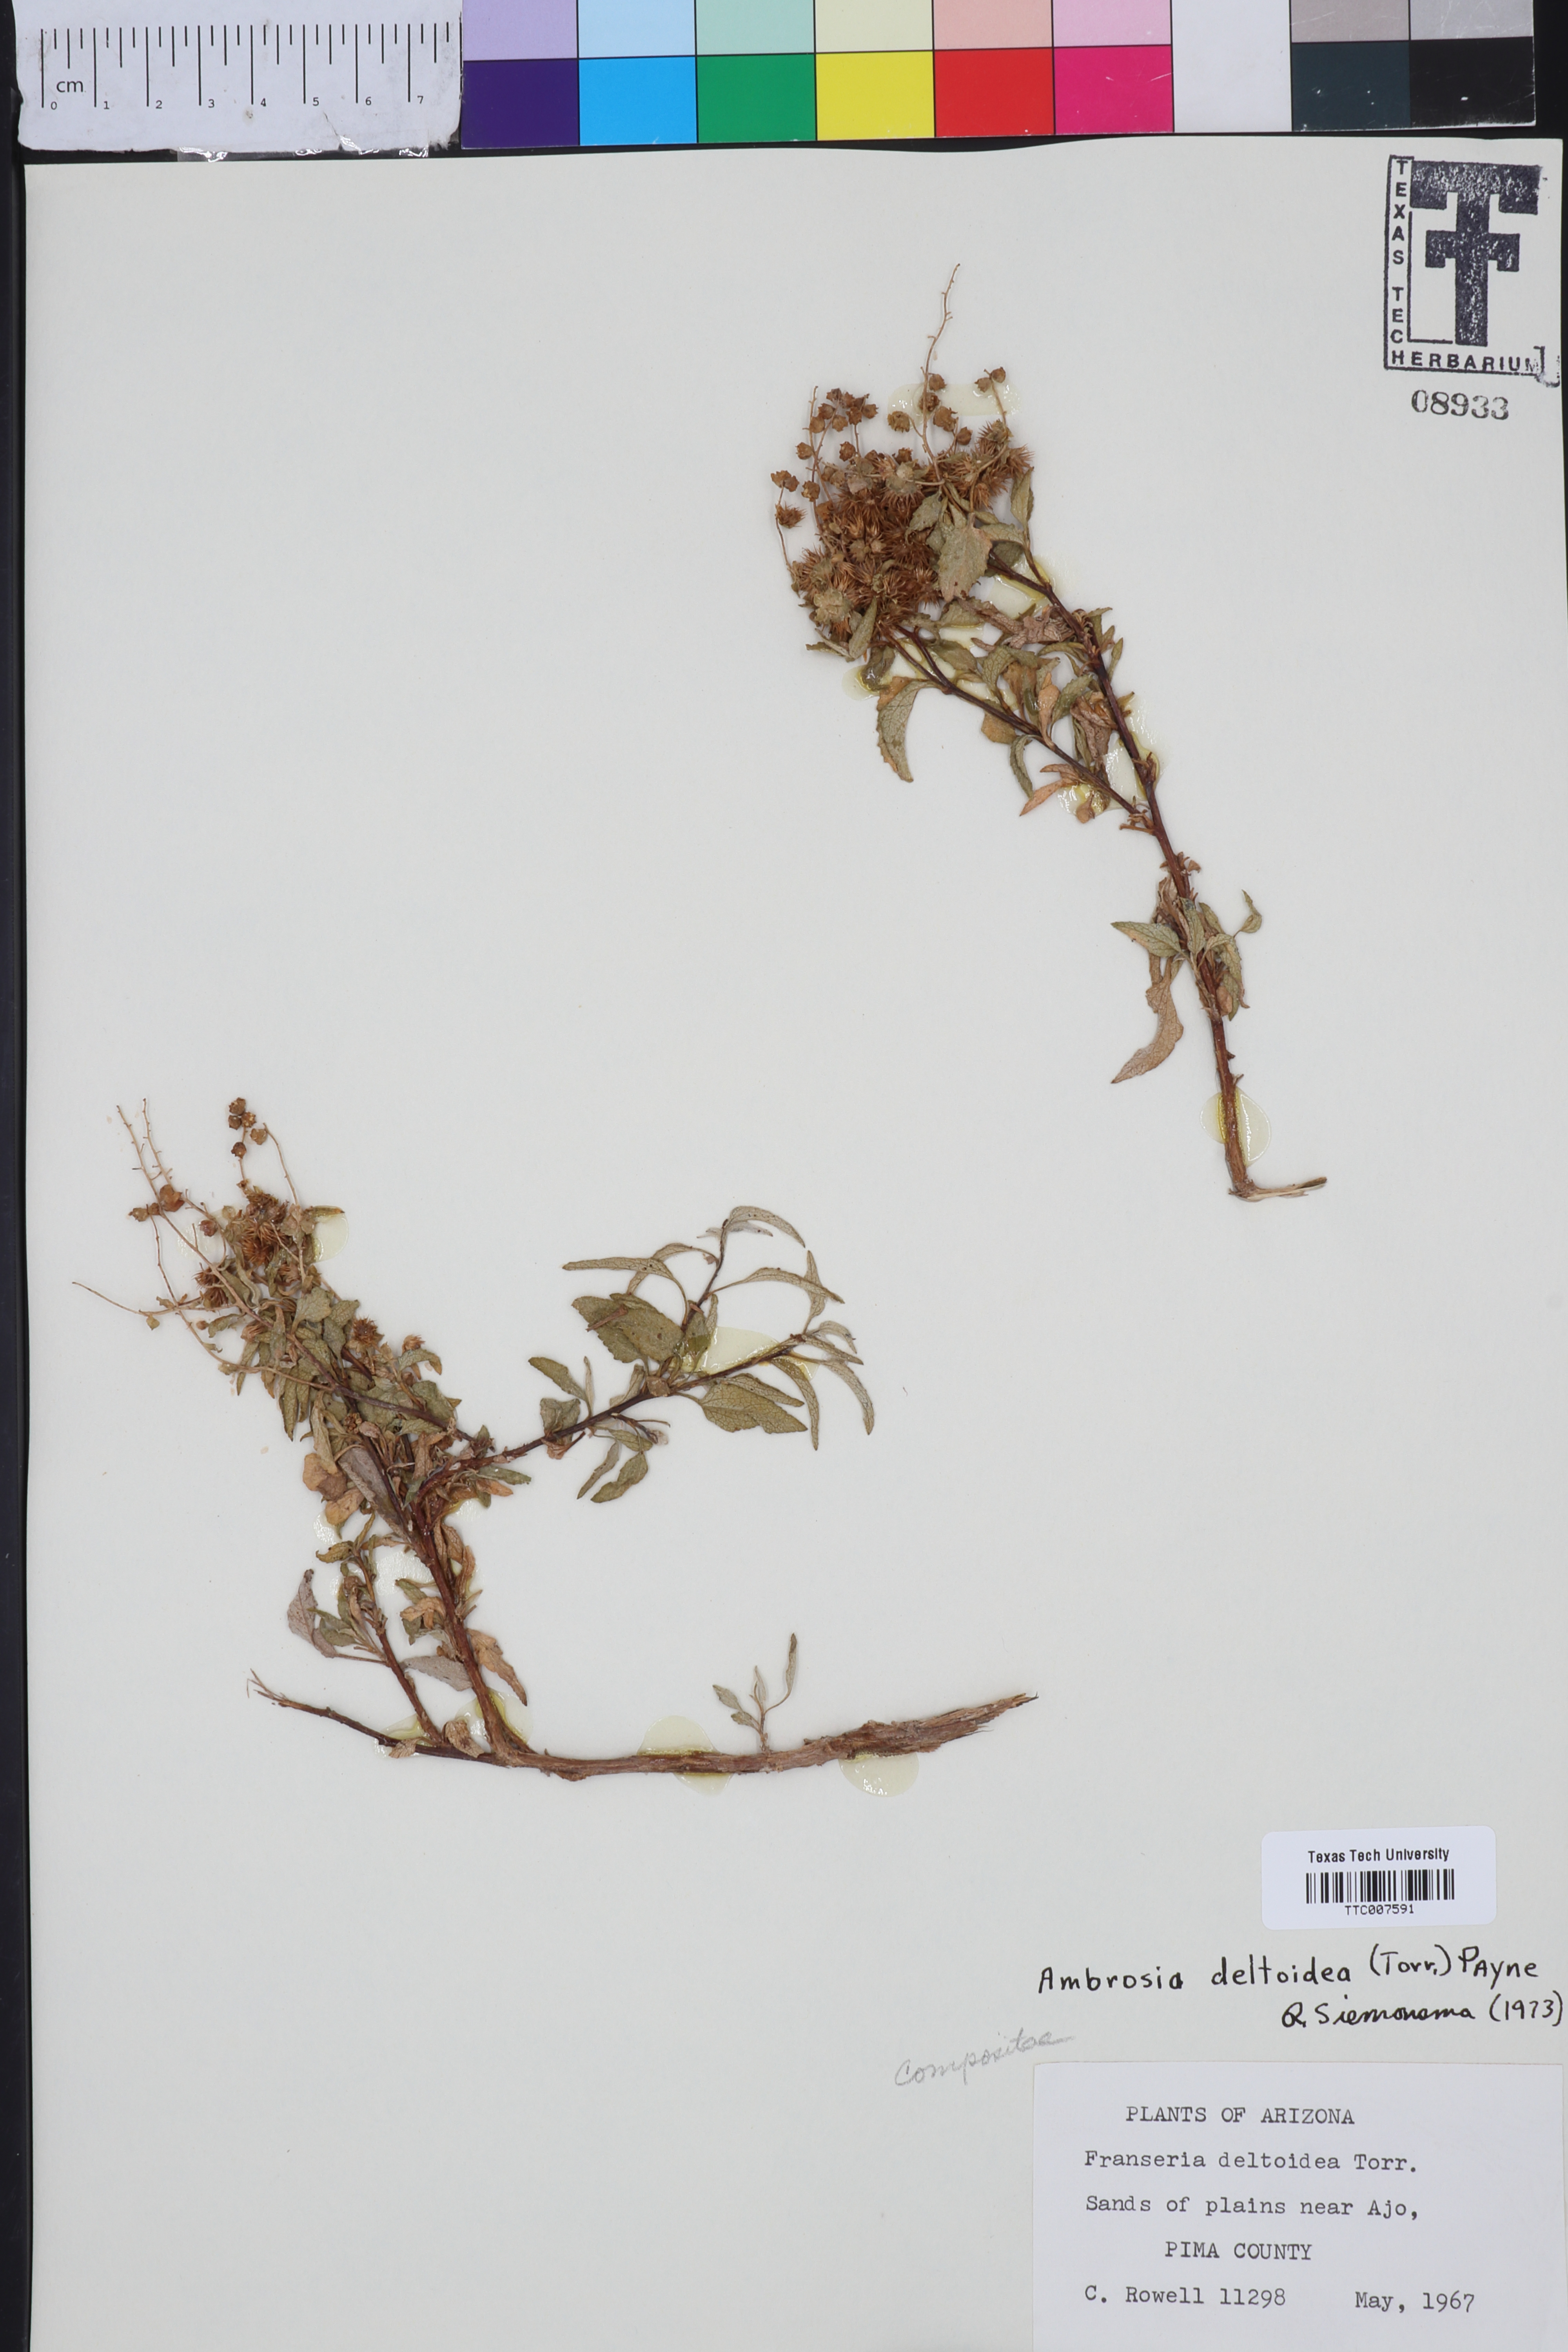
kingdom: Plantae
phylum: Tracheophyta
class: Magnoliopsida
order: Asterales
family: Asteraceae
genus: Ambrosia
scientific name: Ambrosia
